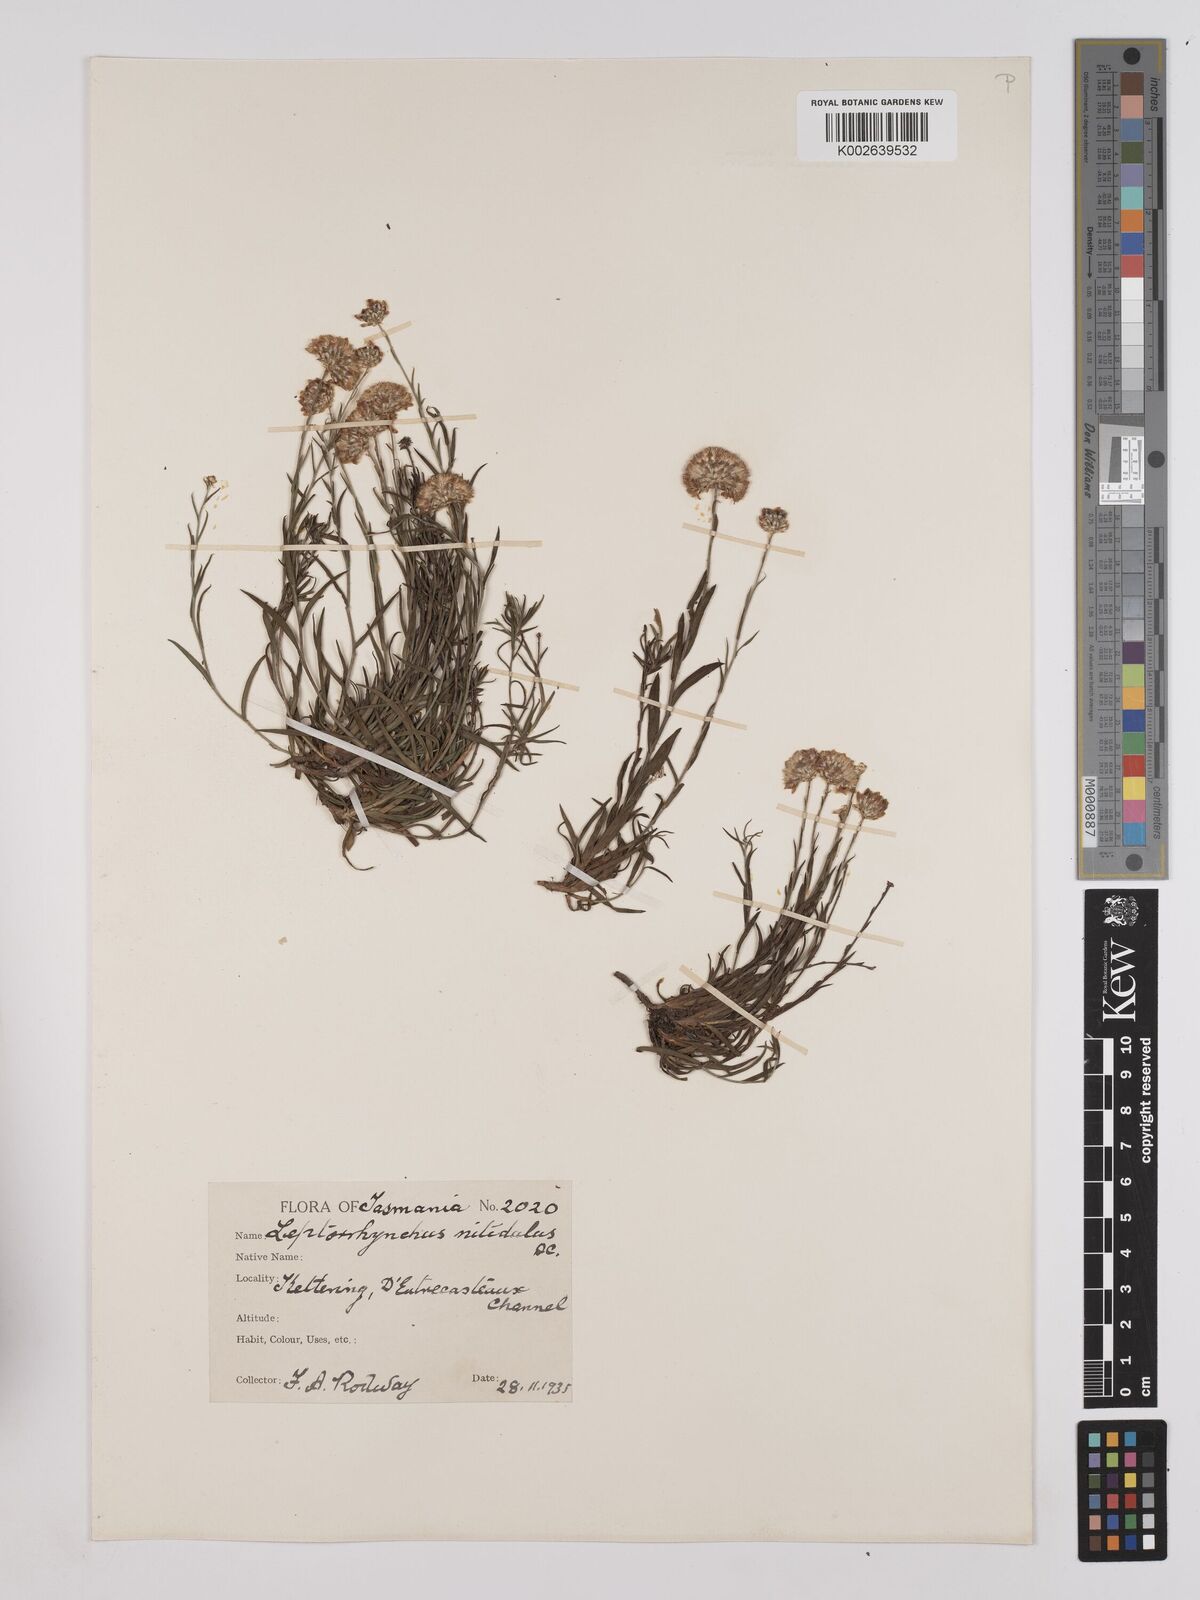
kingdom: Plantae
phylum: Tracheophyta
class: Magnoliopsida
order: Asterales
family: Asteraceae
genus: Leptorhynchos
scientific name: Leptorhynchos nitidulus
